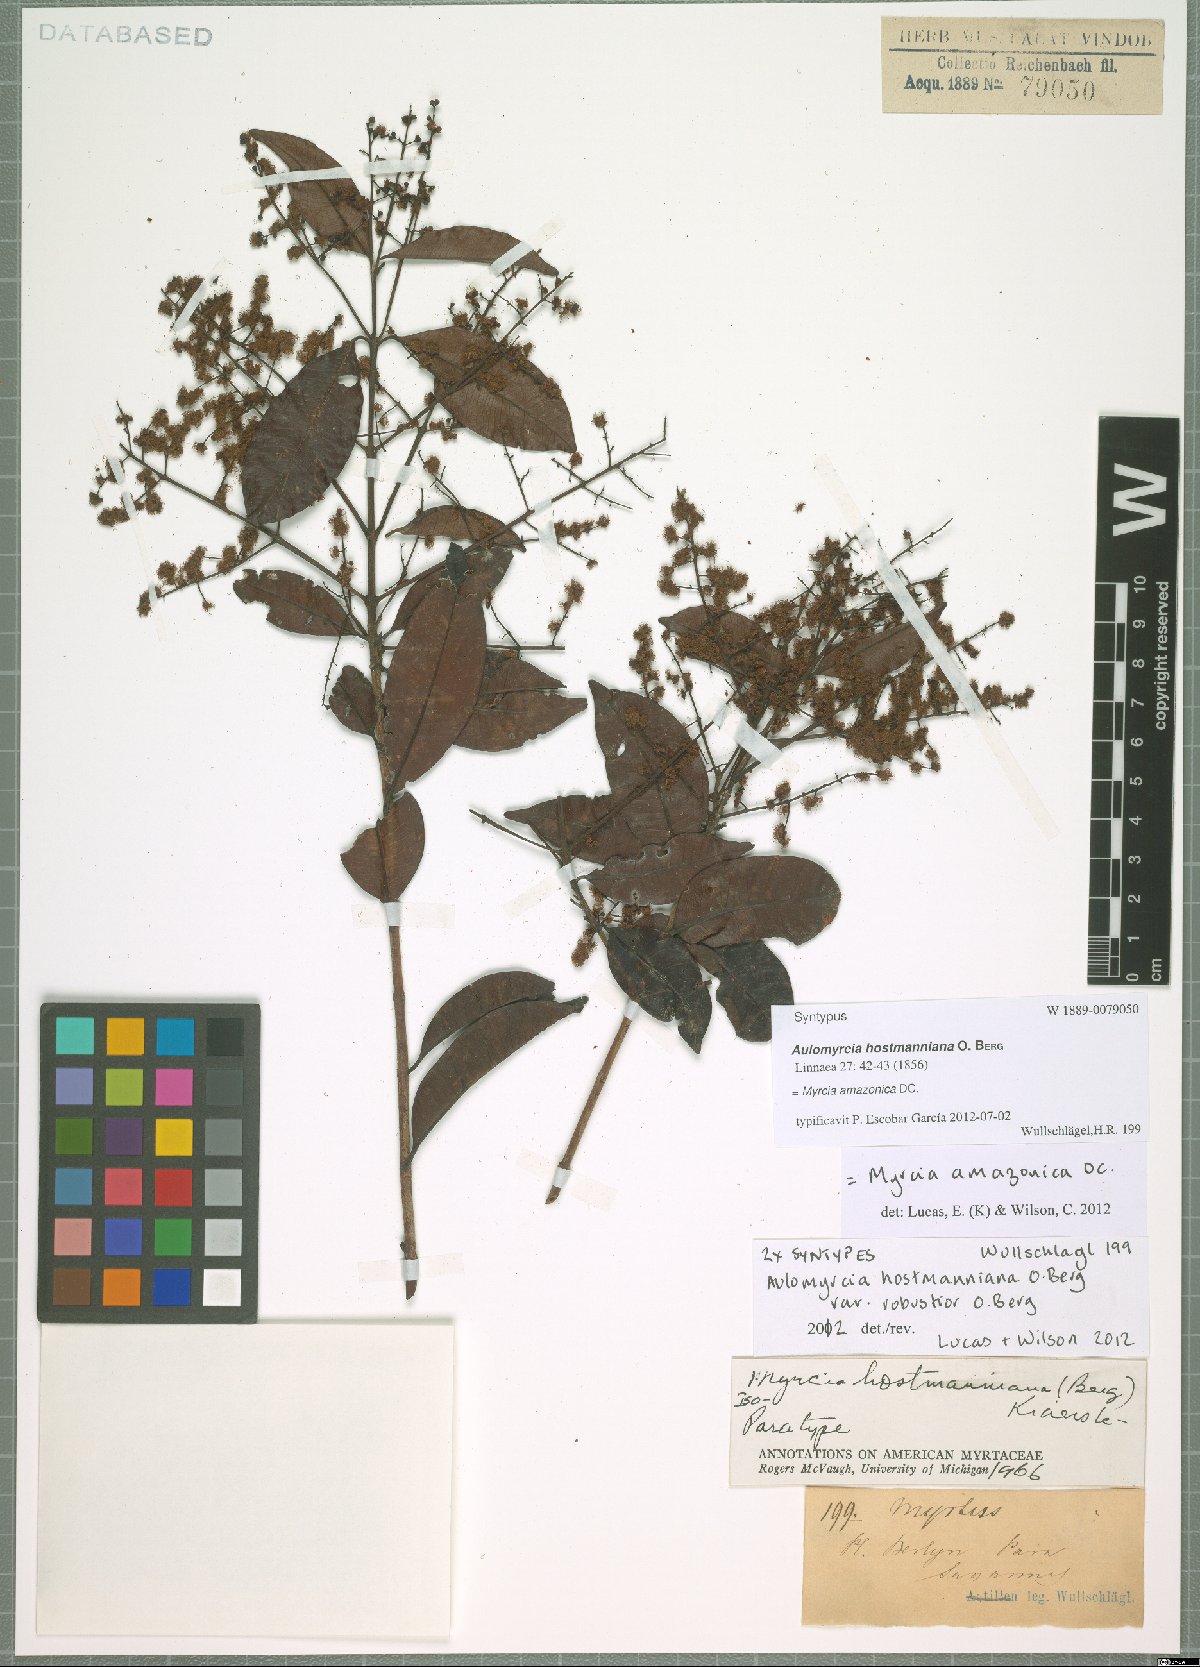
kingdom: Plantae
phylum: Tracheophyta
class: Magnoliopsida
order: Myrtales
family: Myrtaceae
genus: Myrcia
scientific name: Myrcia amazonica
